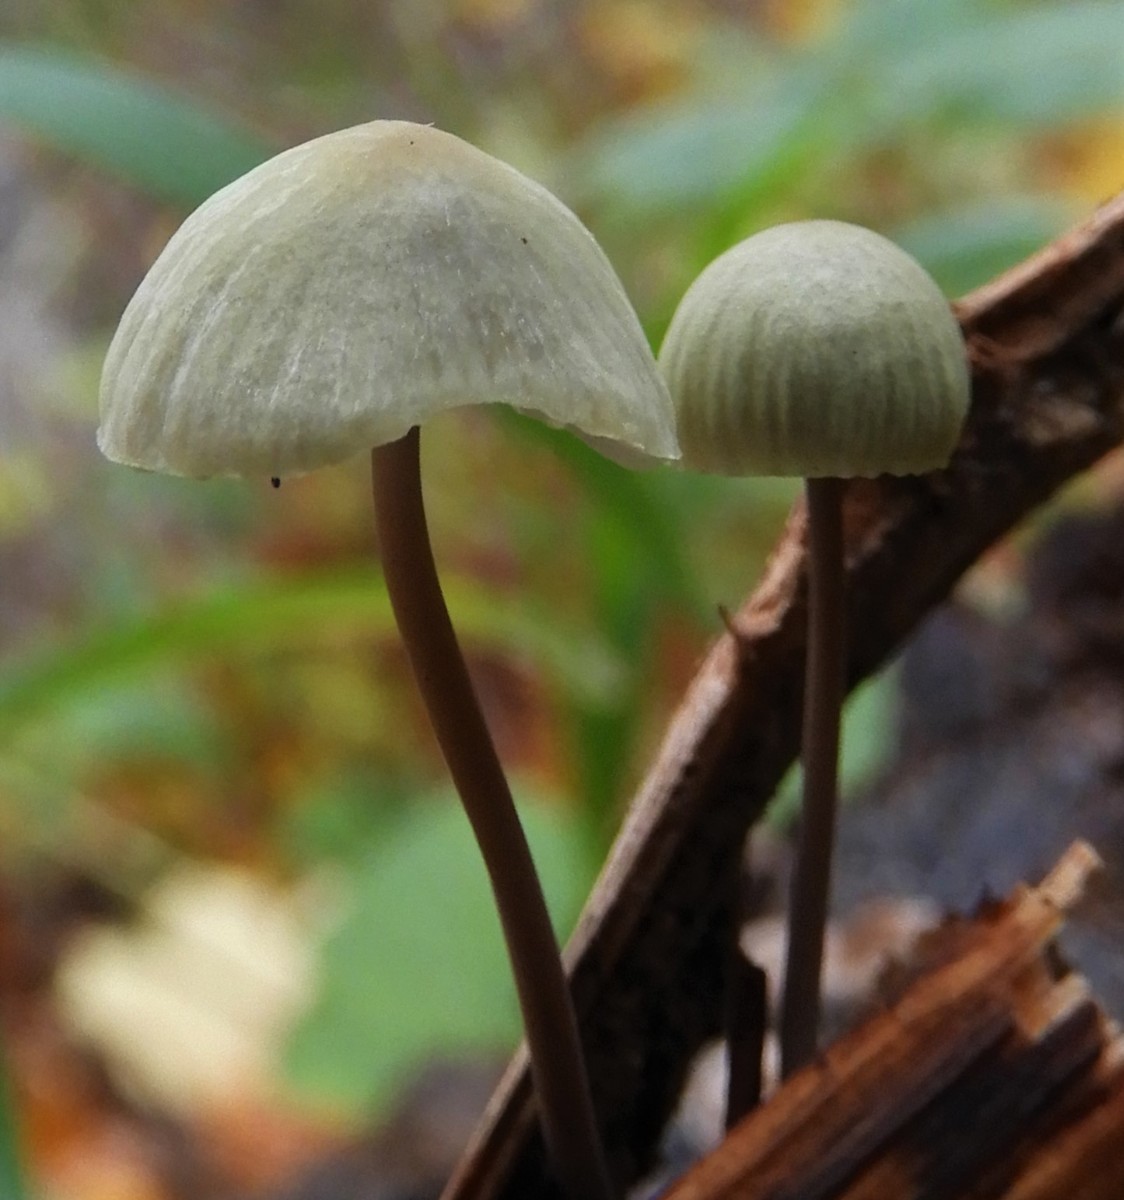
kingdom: Fungi
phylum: Basidiomycota
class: Agaricomycetes
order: Agaricales
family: Mycenaceae
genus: Mycena
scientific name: Mycena arcangeliana
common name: oliven-huesvamp
